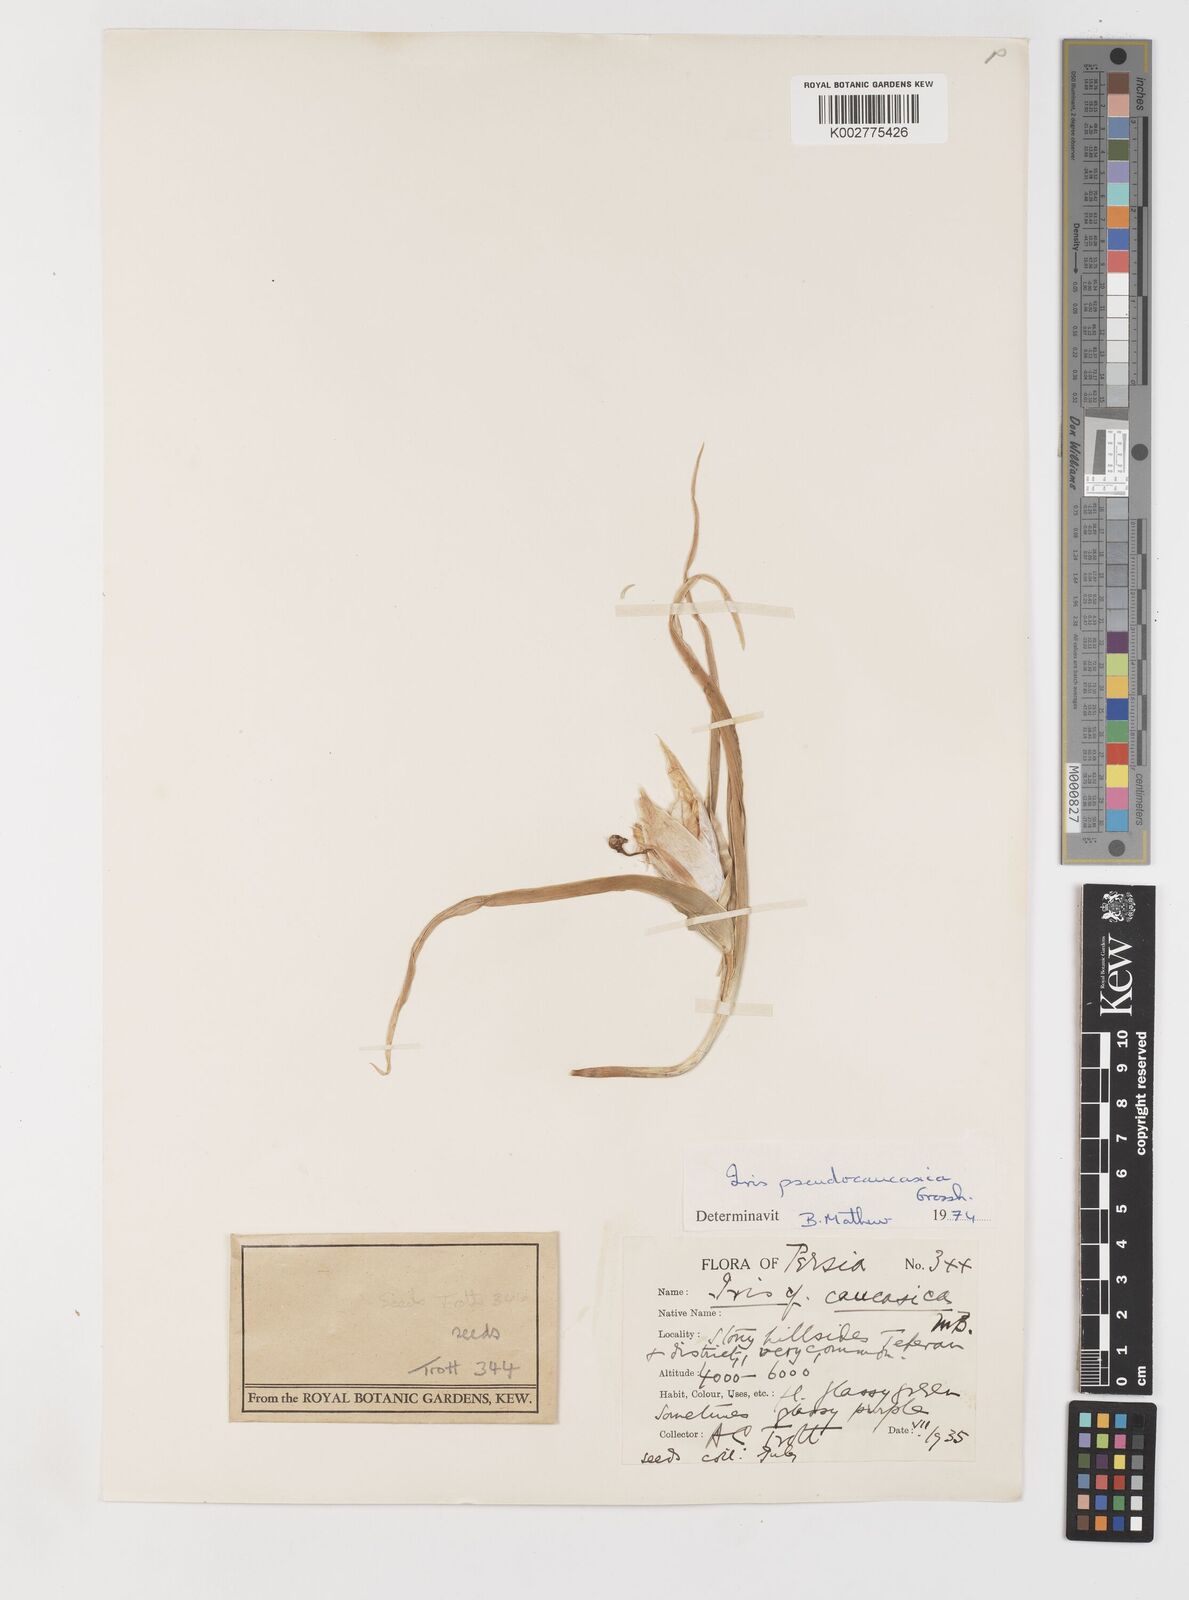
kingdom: Plantae
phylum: Tracheophyta
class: Liliopsida
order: Asparagales
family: Iridaceae
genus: Iris
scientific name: Iris pseudocaucasica
